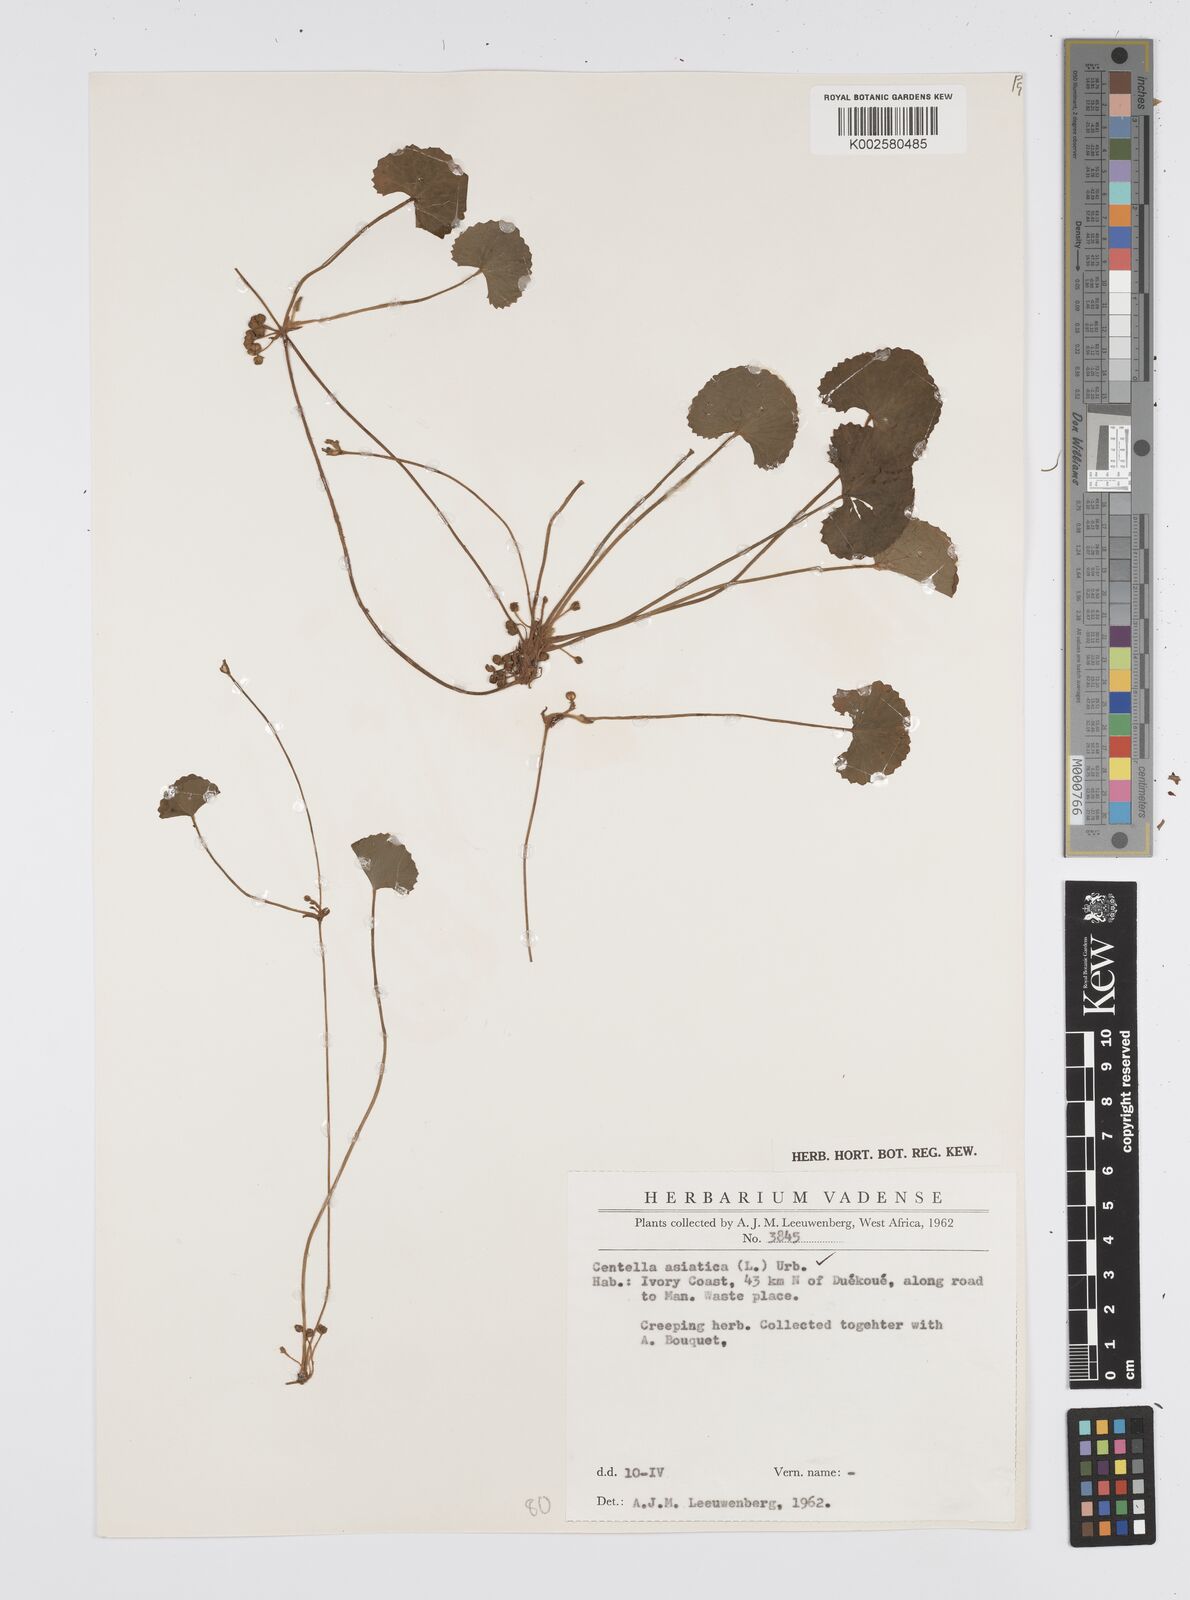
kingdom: Plantae
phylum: Tracheophyta
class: Magnoliopsida
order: Apiales
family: Apiaceae
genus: Centella
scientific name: Centella asiatica
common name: Spadeleaf
